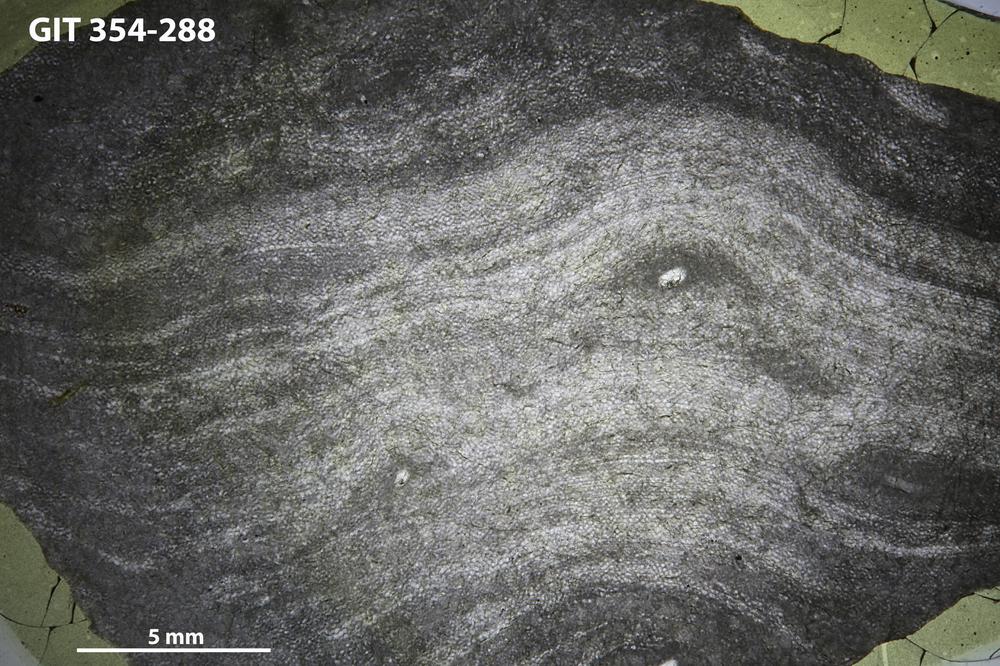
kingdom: Animalia
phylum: Porifera
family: Clathrodictyidae
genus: Clathrodictyon
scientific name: Clathrodictyon boreale
